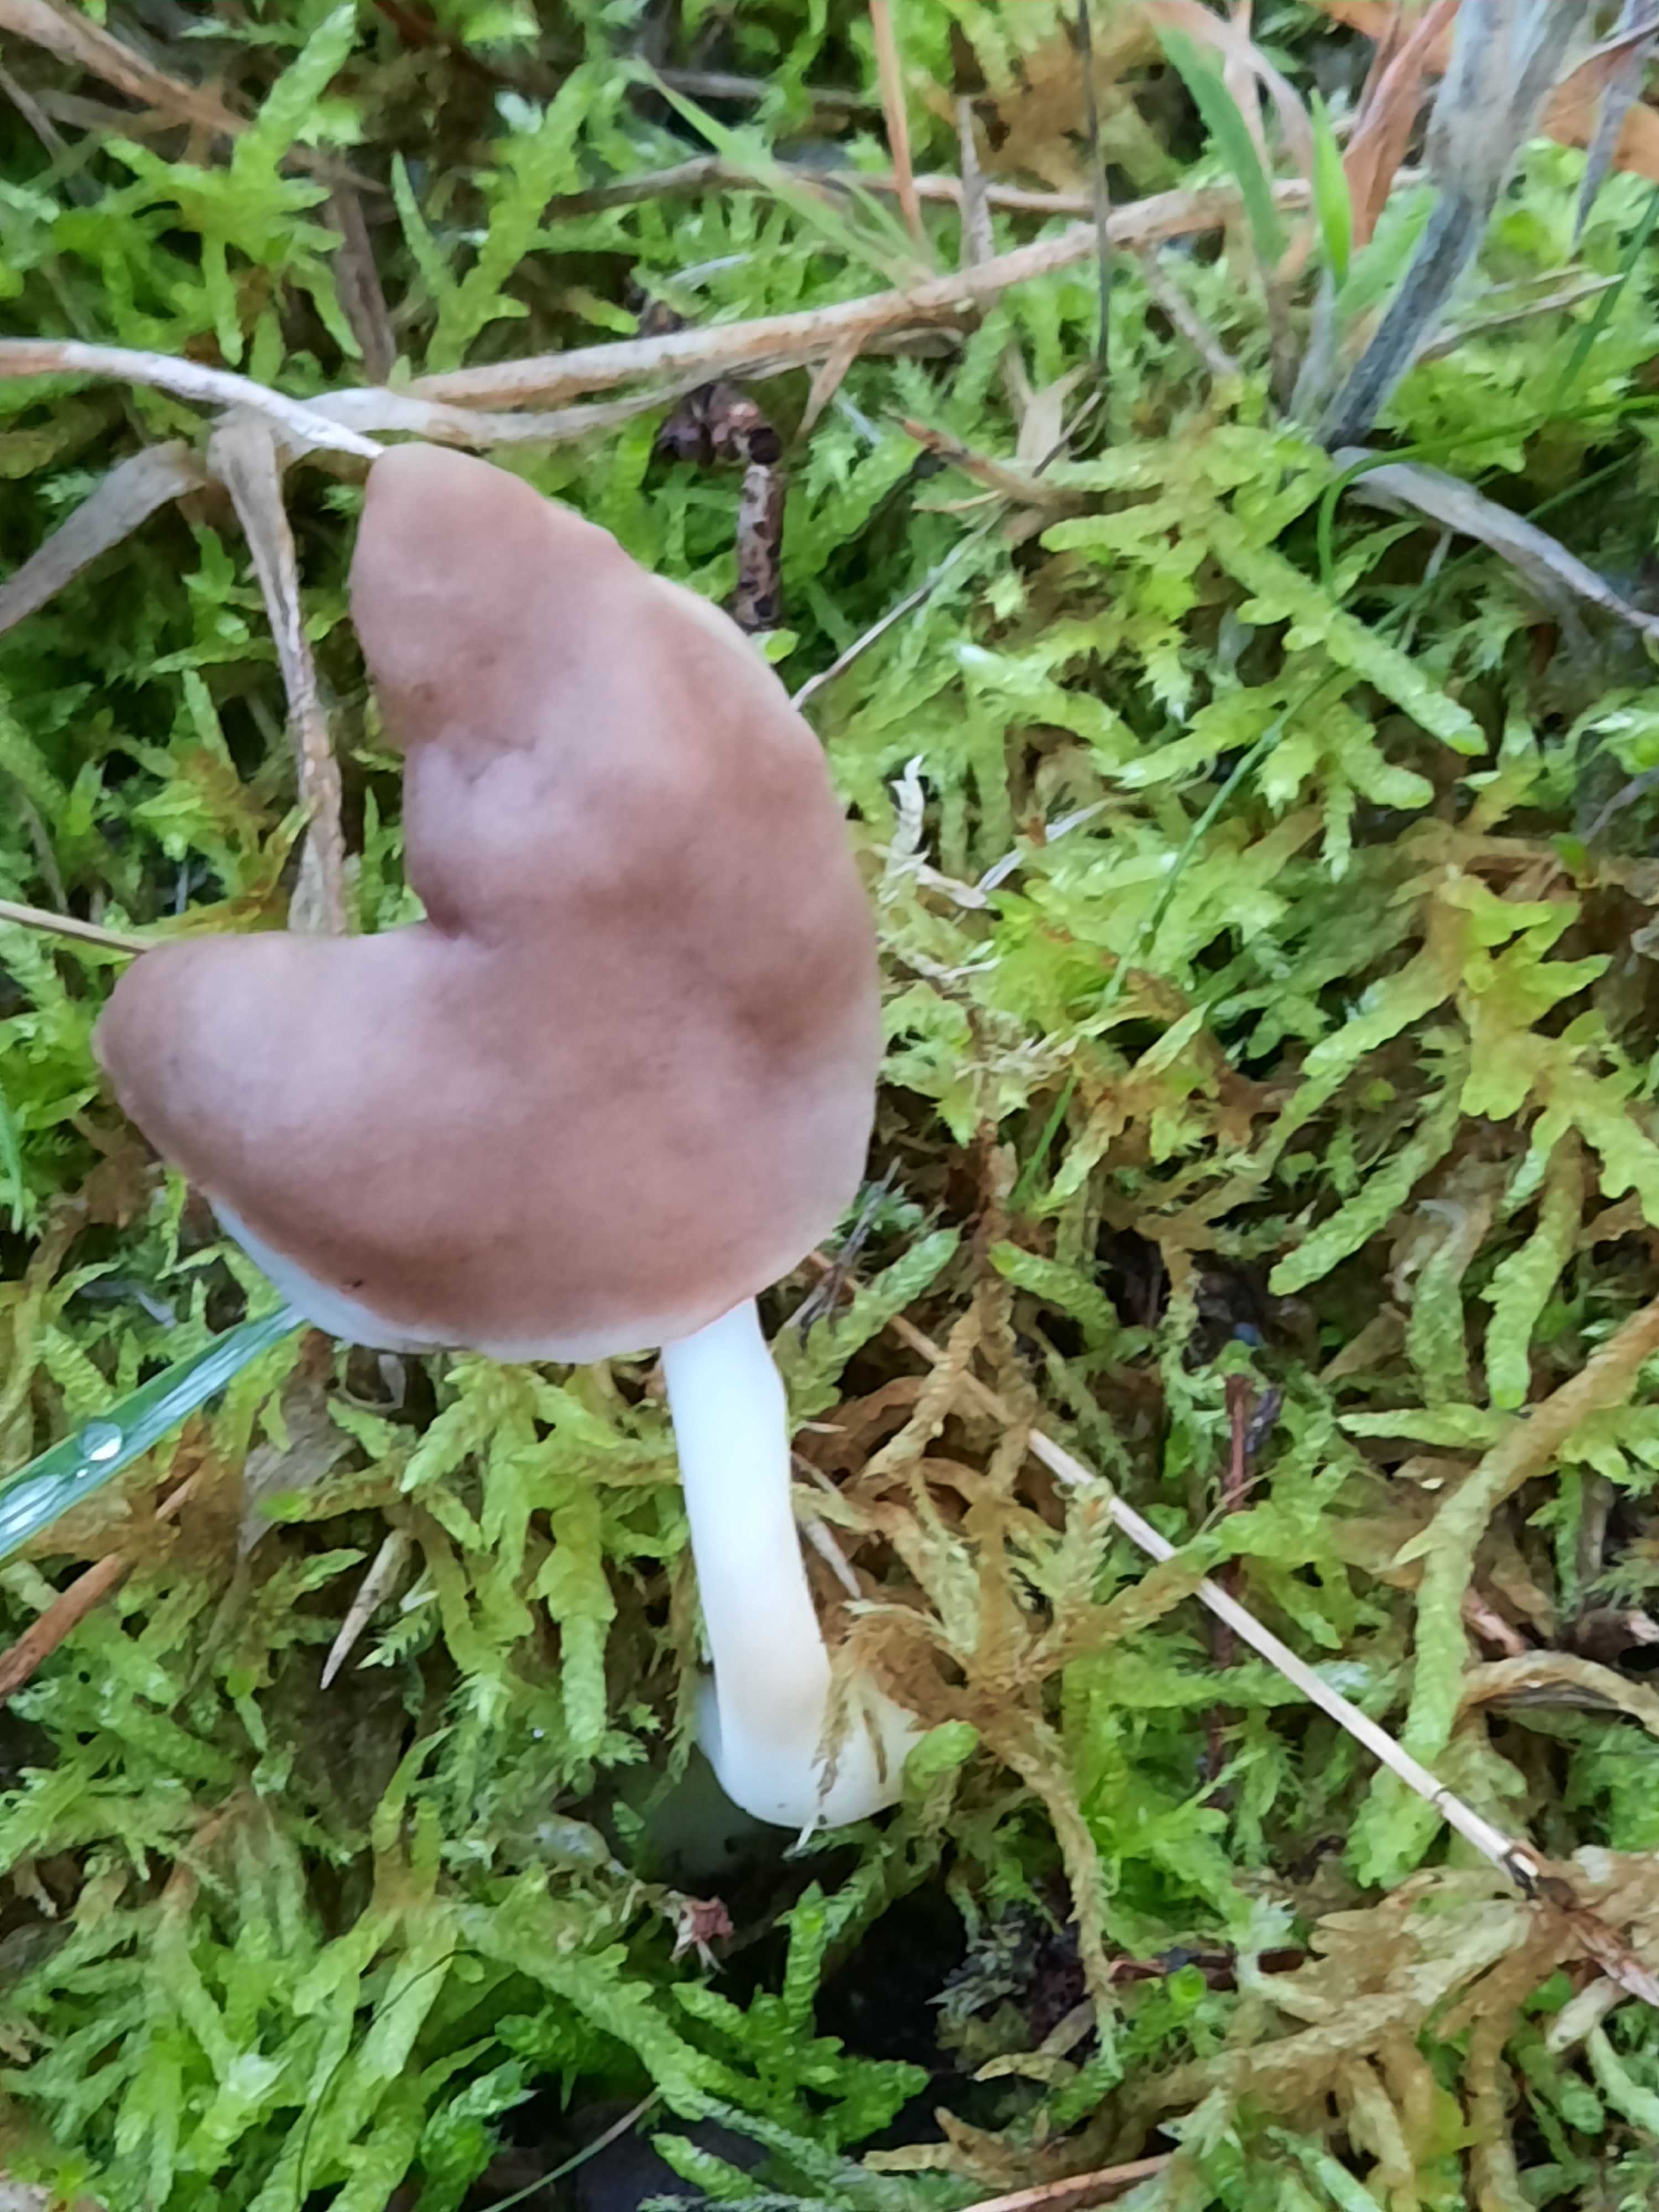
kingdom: Fungi
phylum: Ascomycota
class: Pezizomycetes
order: Pezizales
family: Helvellaceae
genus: Helvella
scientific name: Helvella elastica
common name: elastik-foldhat
